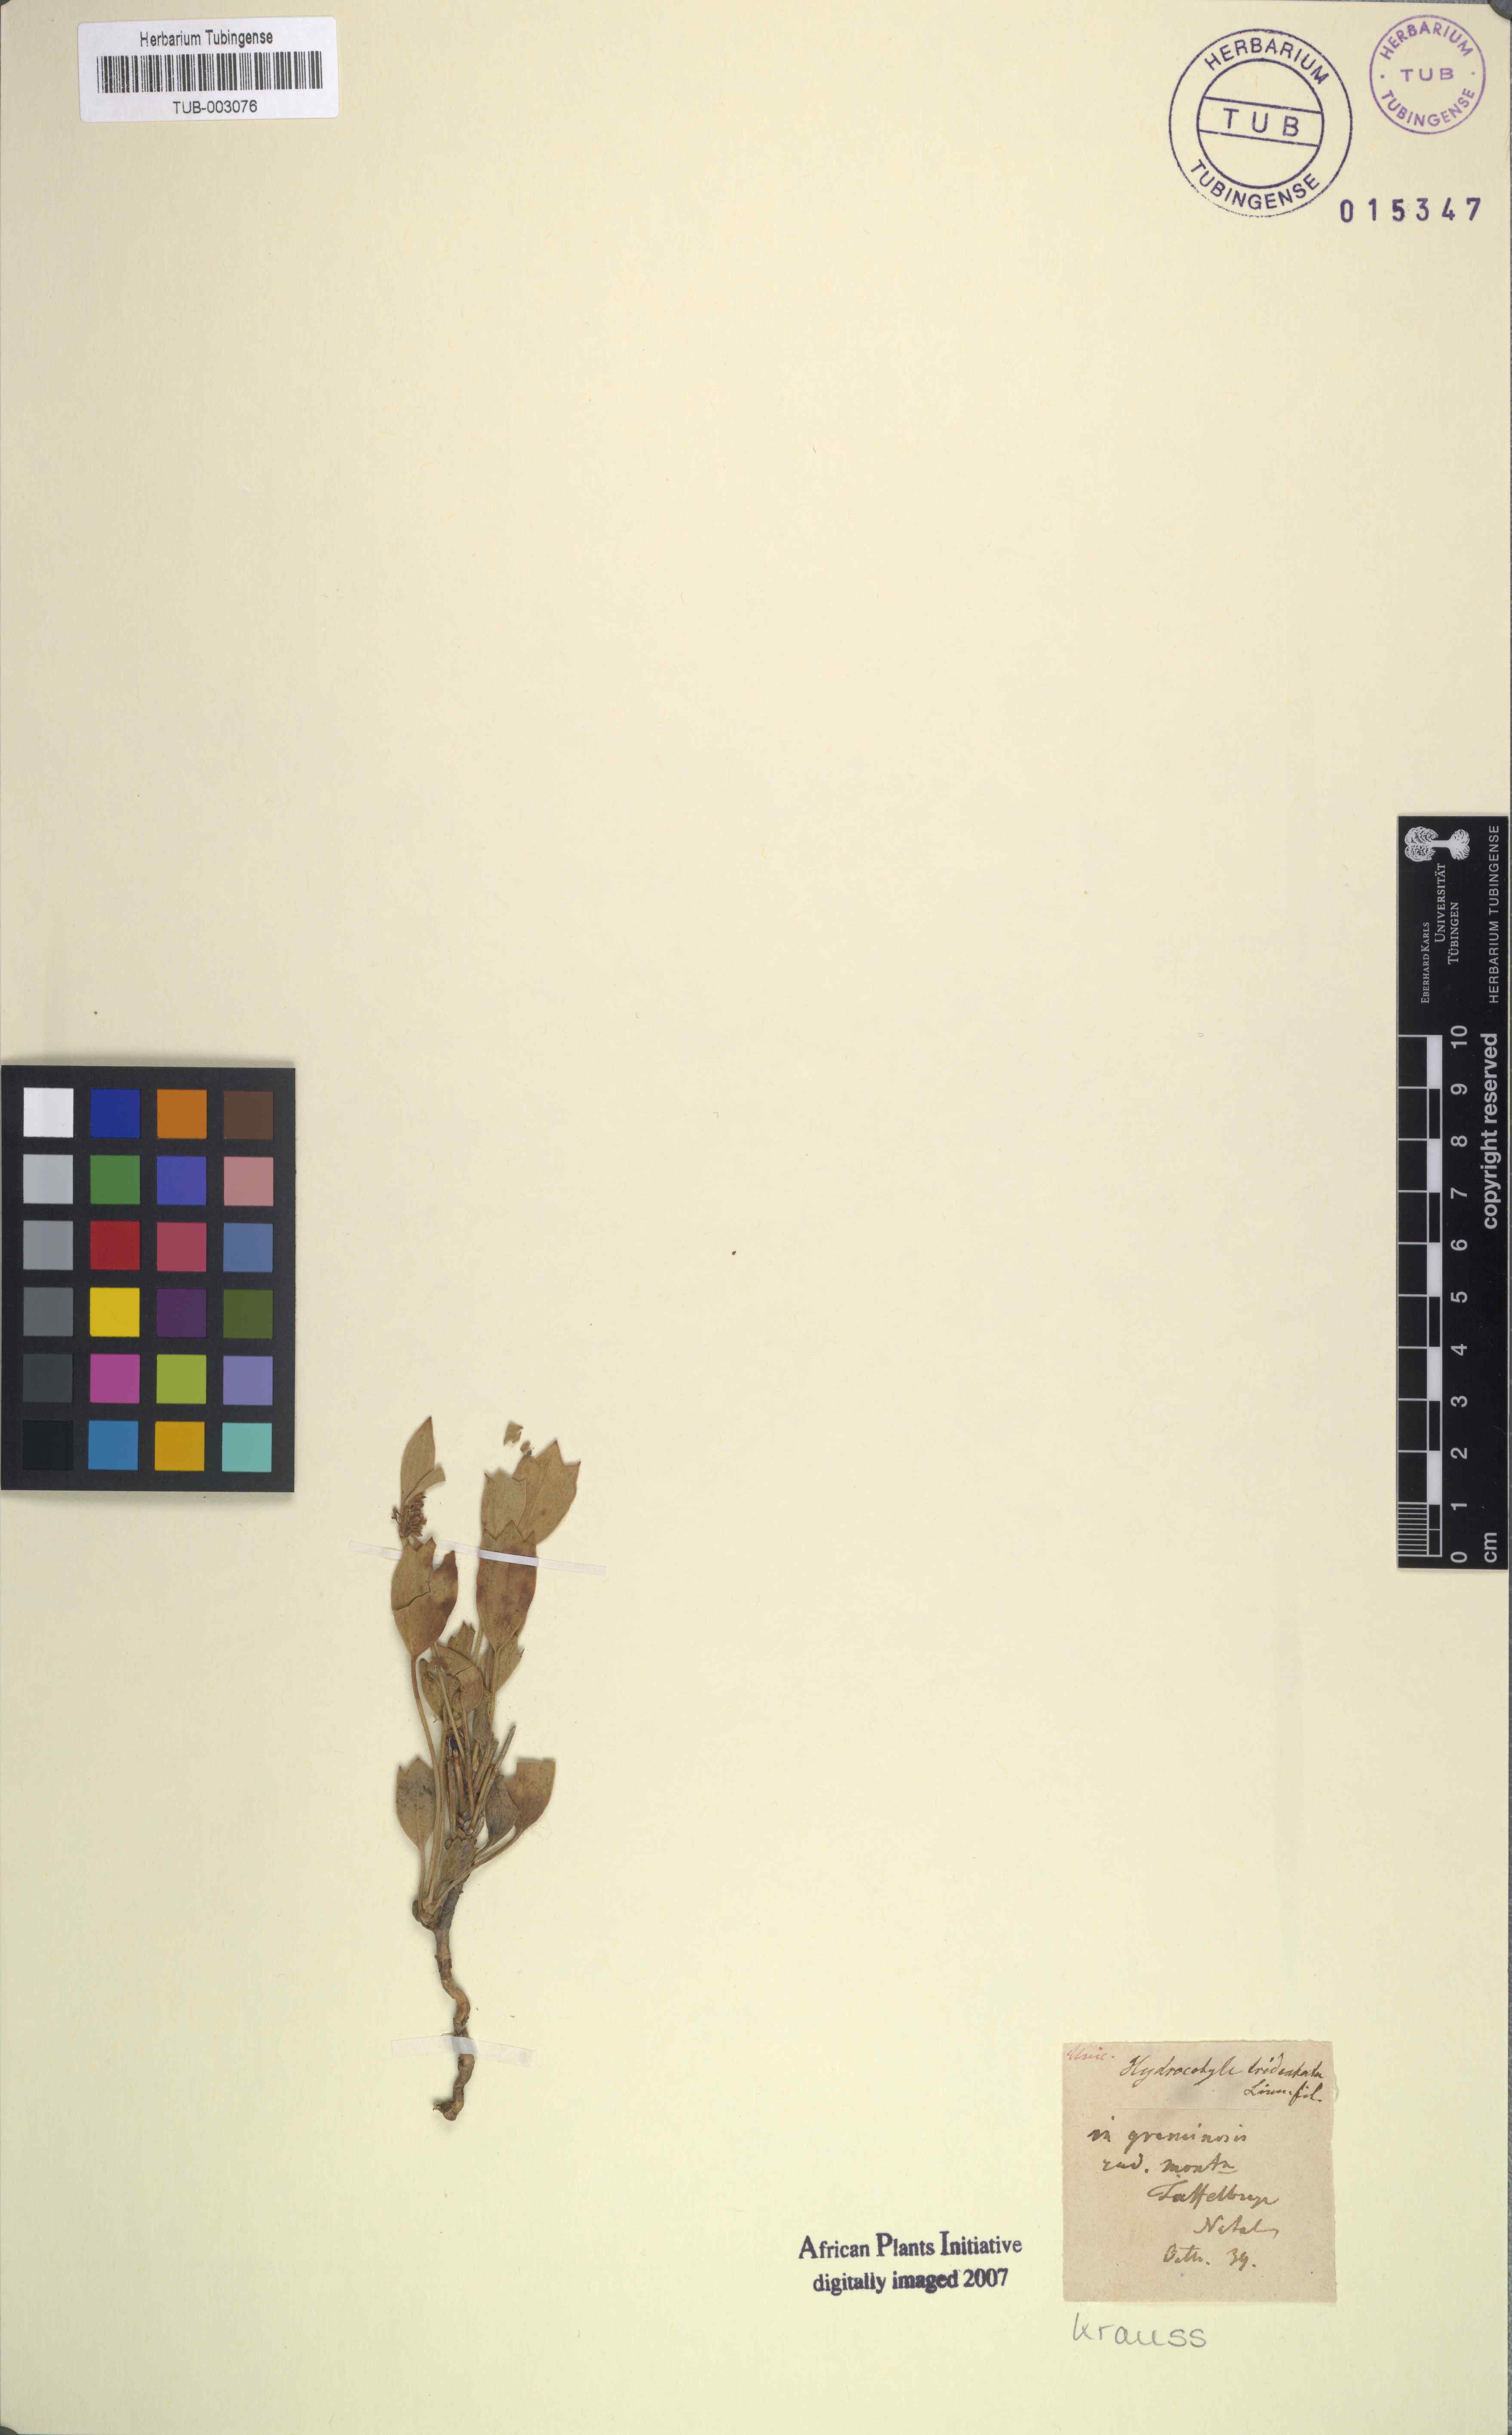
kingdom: Plantae
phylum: Tracheophyta
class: Magnoliopsida
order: Apiales
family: Apiaceae
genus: Centella
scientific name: Centella tridentata
